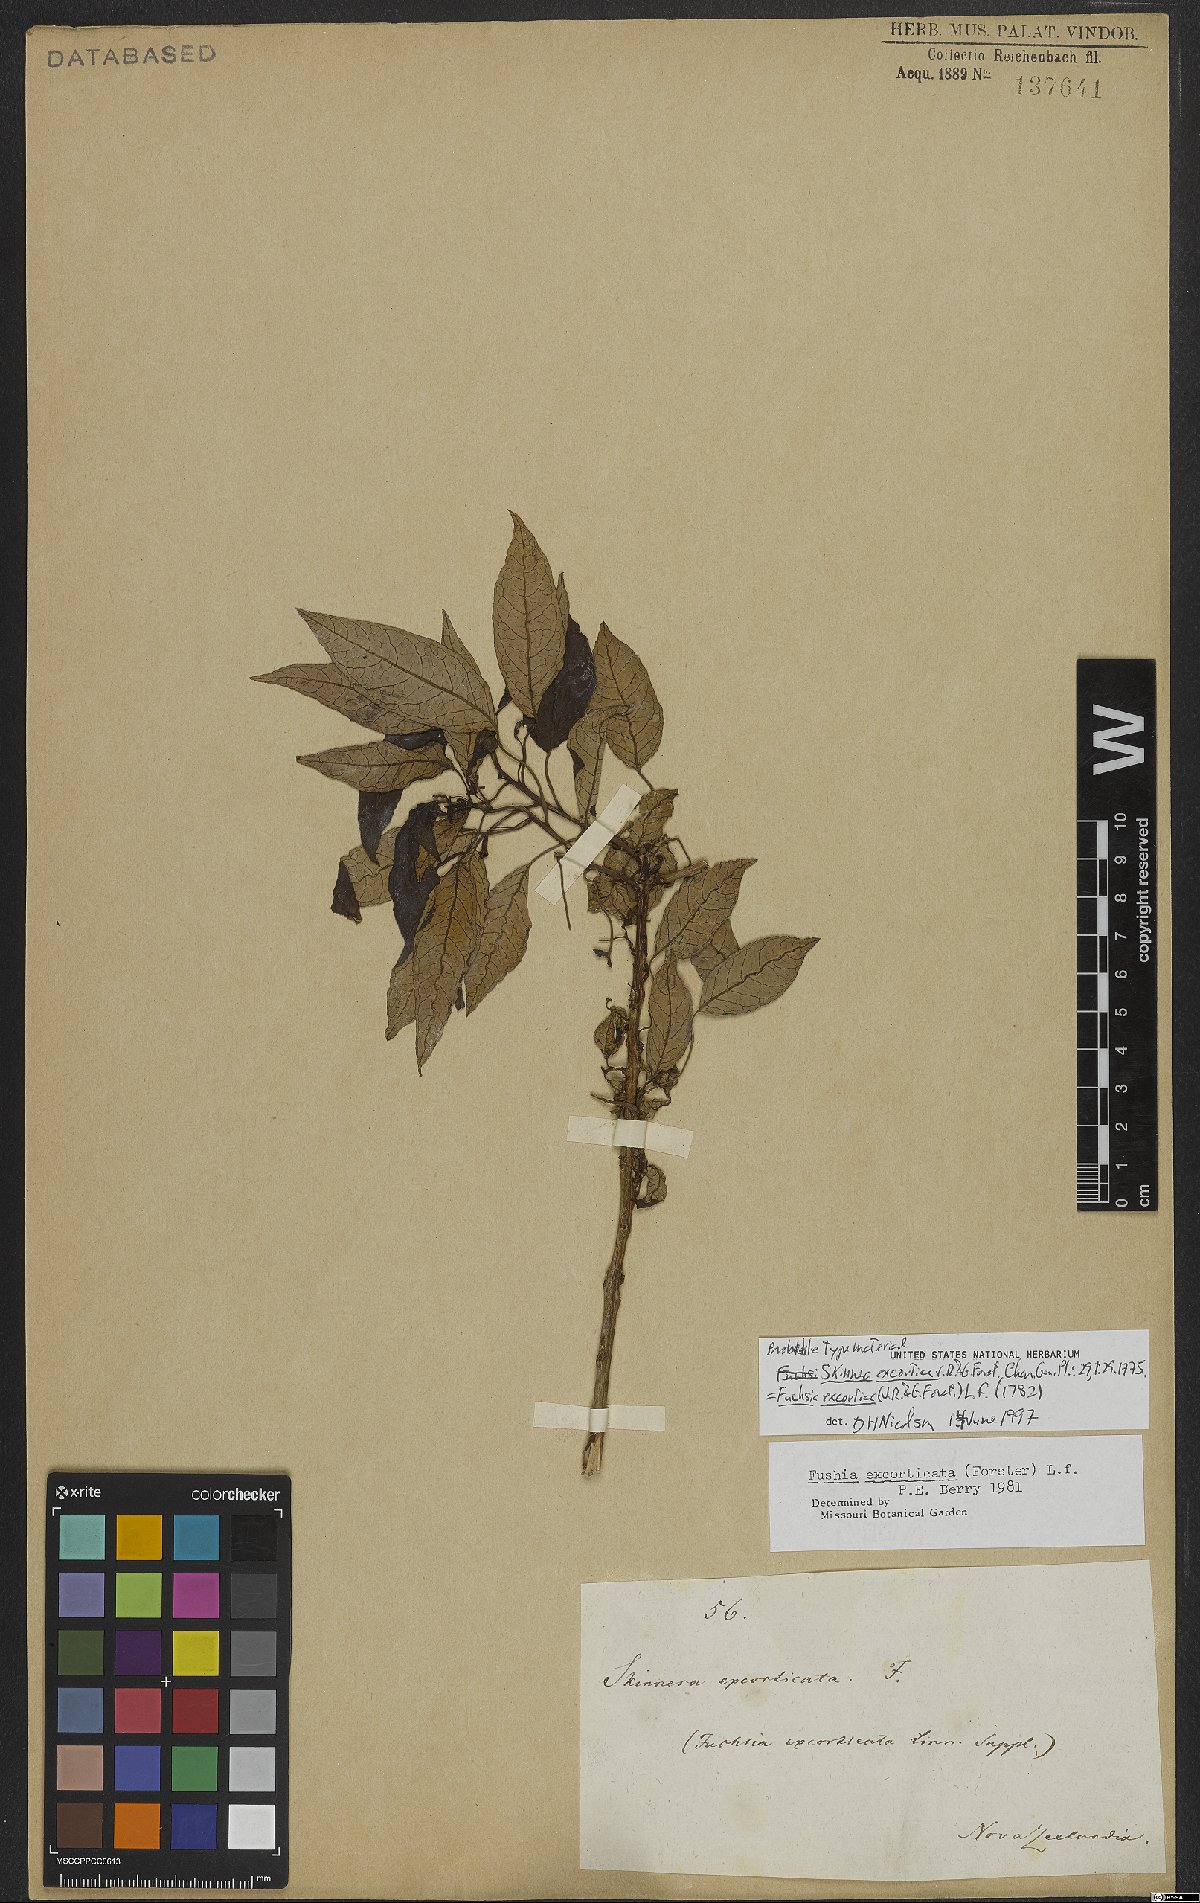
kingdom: Plantae
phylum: Tracheophyta
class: Magnoliopsida
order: Myrtales
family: Onagraceae
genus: Fuchsia
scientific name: Fuchsia excorticata
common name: Tree fuchsia
